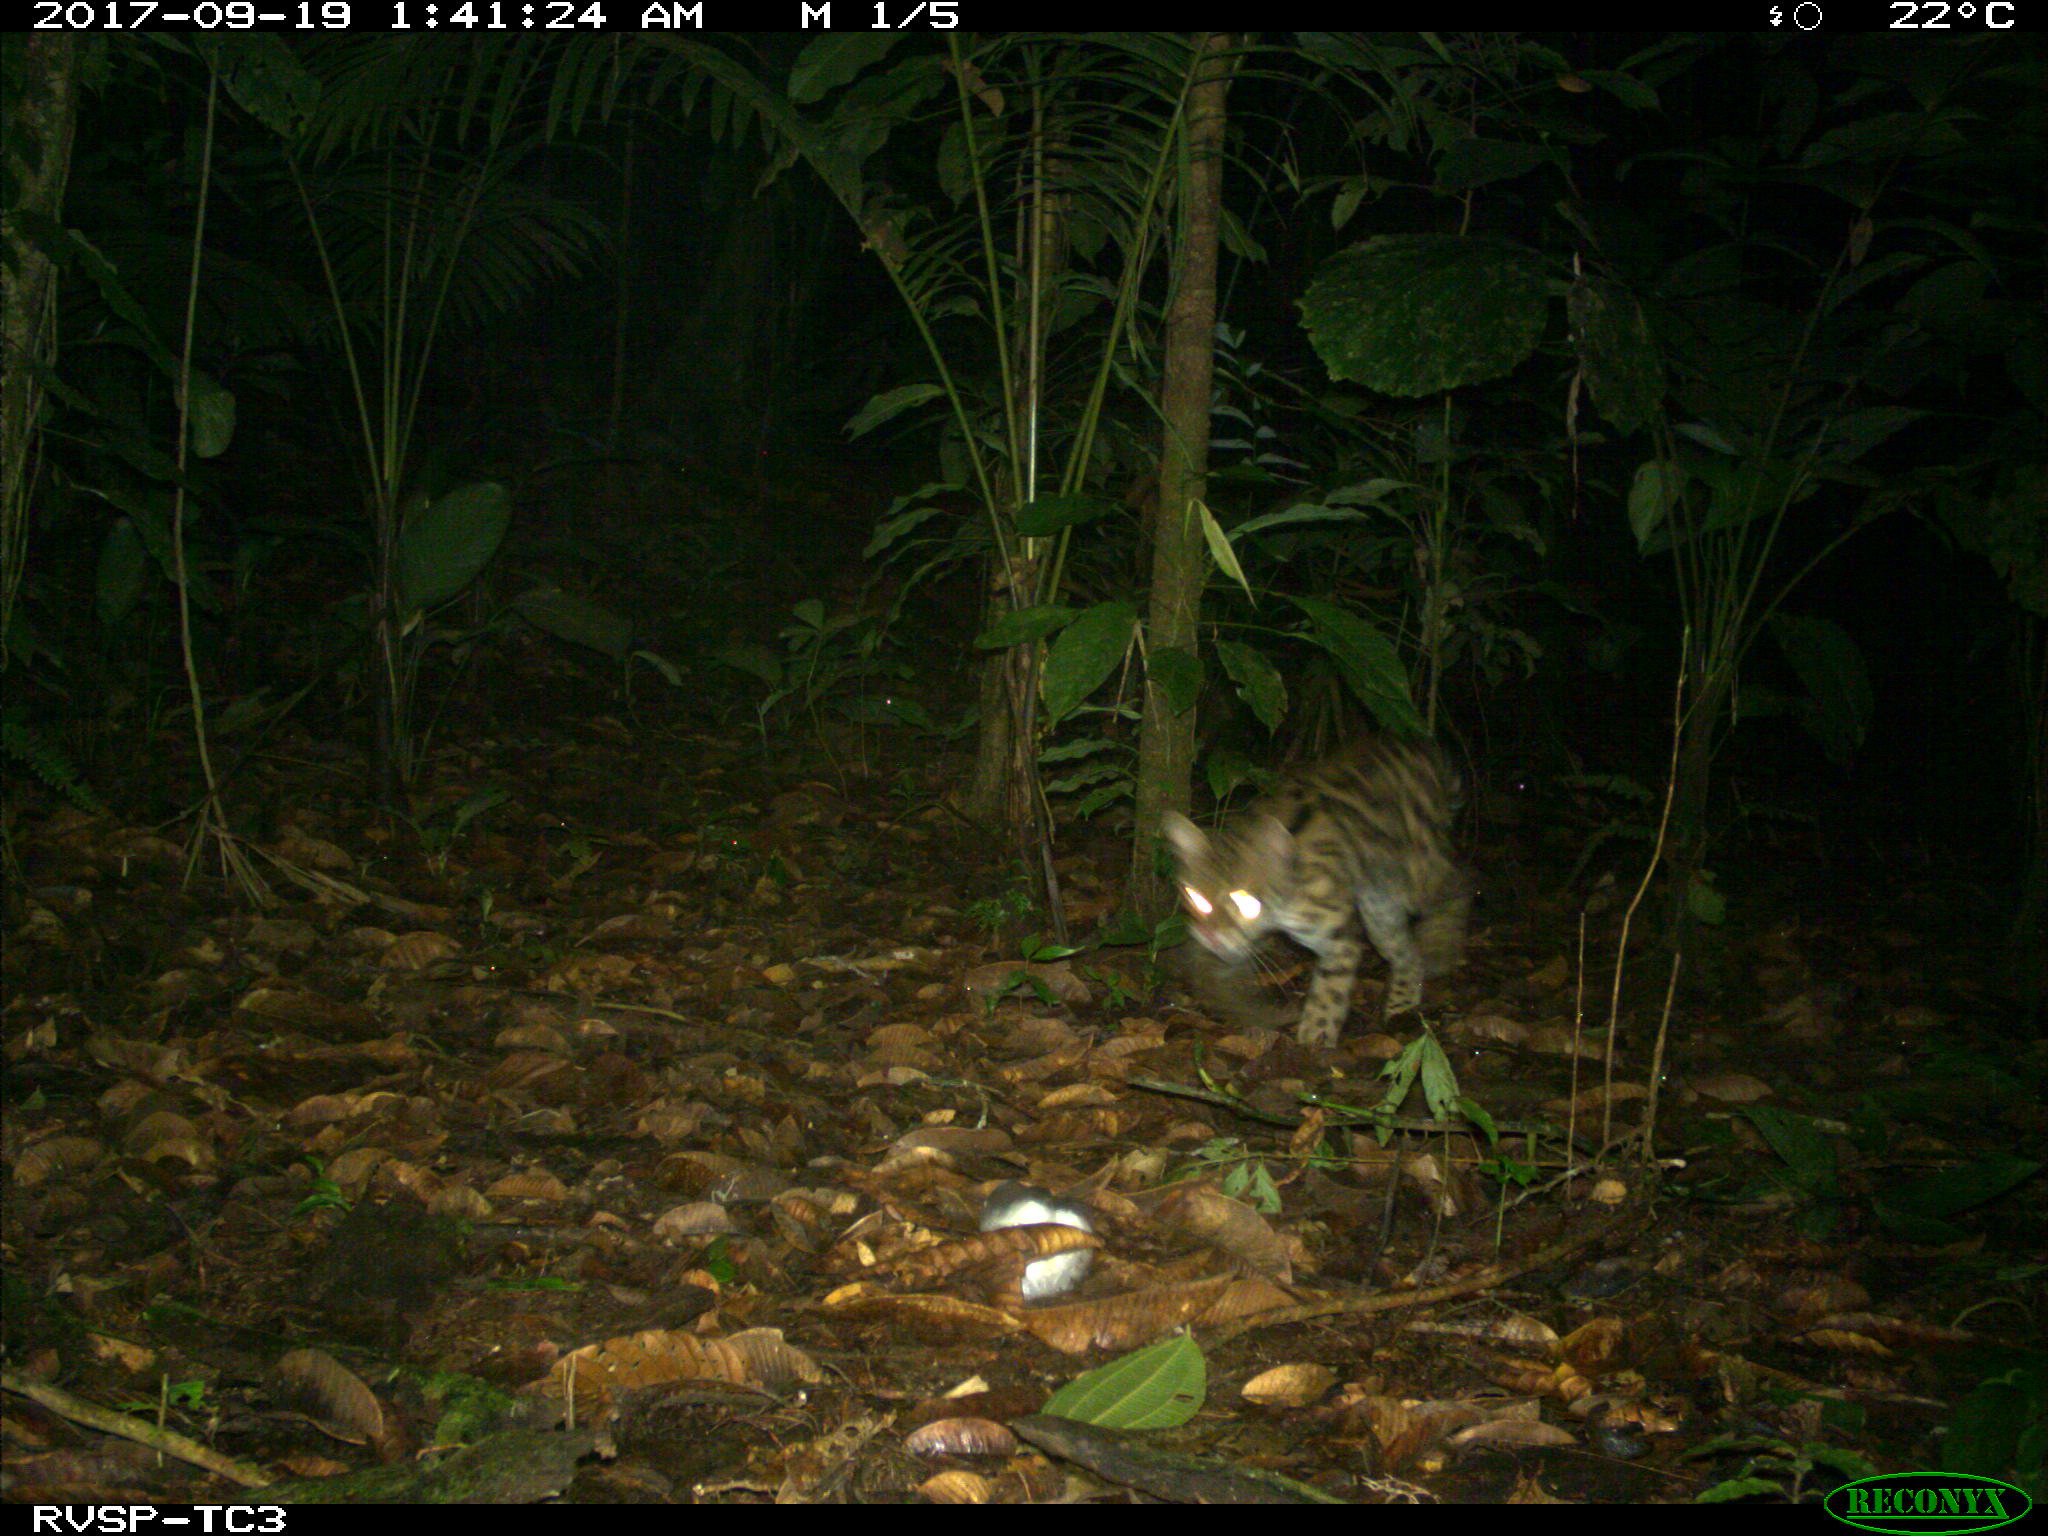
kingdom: Animalia
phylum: Chordata
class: Mammalia
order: Carnivora
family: Felidae
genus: Leopardus
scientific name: Leopardus wiedii
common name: Margay
